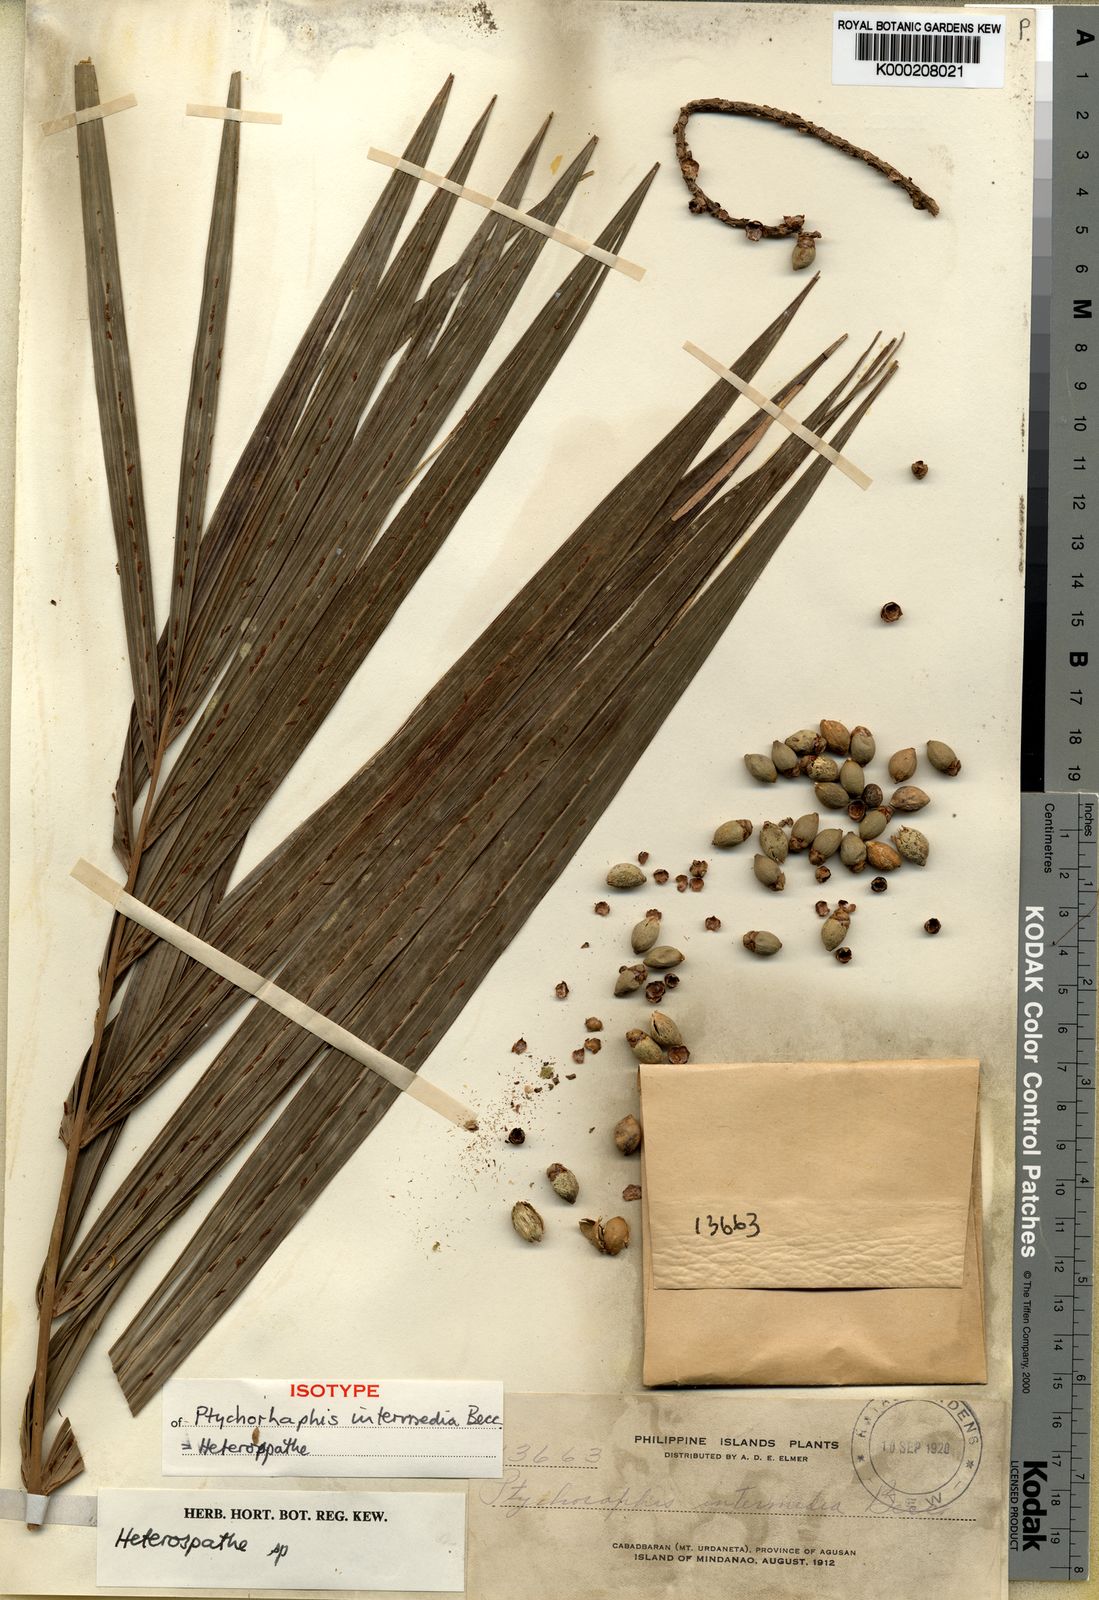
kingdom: Plantae
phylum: Tracheophyta
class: Liliopsida
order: Arecales
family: Arecaceae
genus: Heterospathe
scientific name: Heterospathe intermedia
